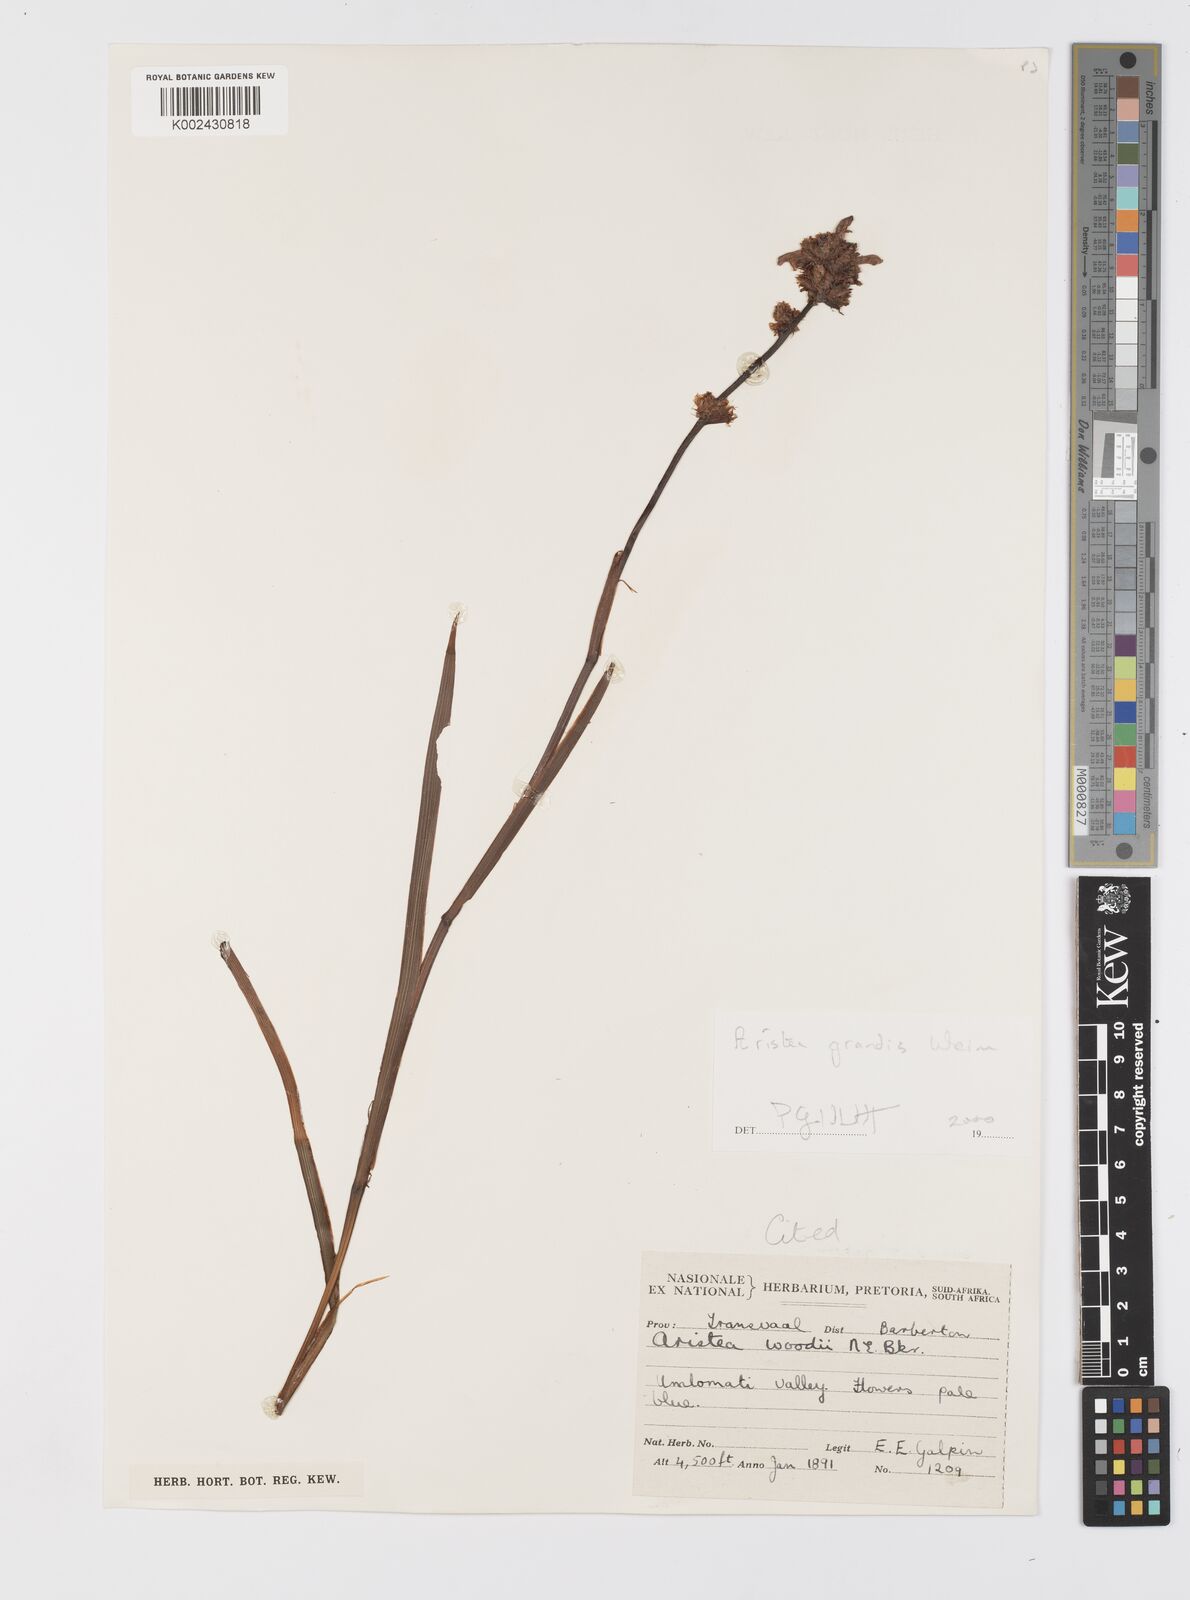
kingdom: Plantae
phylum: Tracheophyta
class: Liliopsida
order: Asparagales
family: Iridaceae
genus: Aristea
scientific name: Aristea grandis
